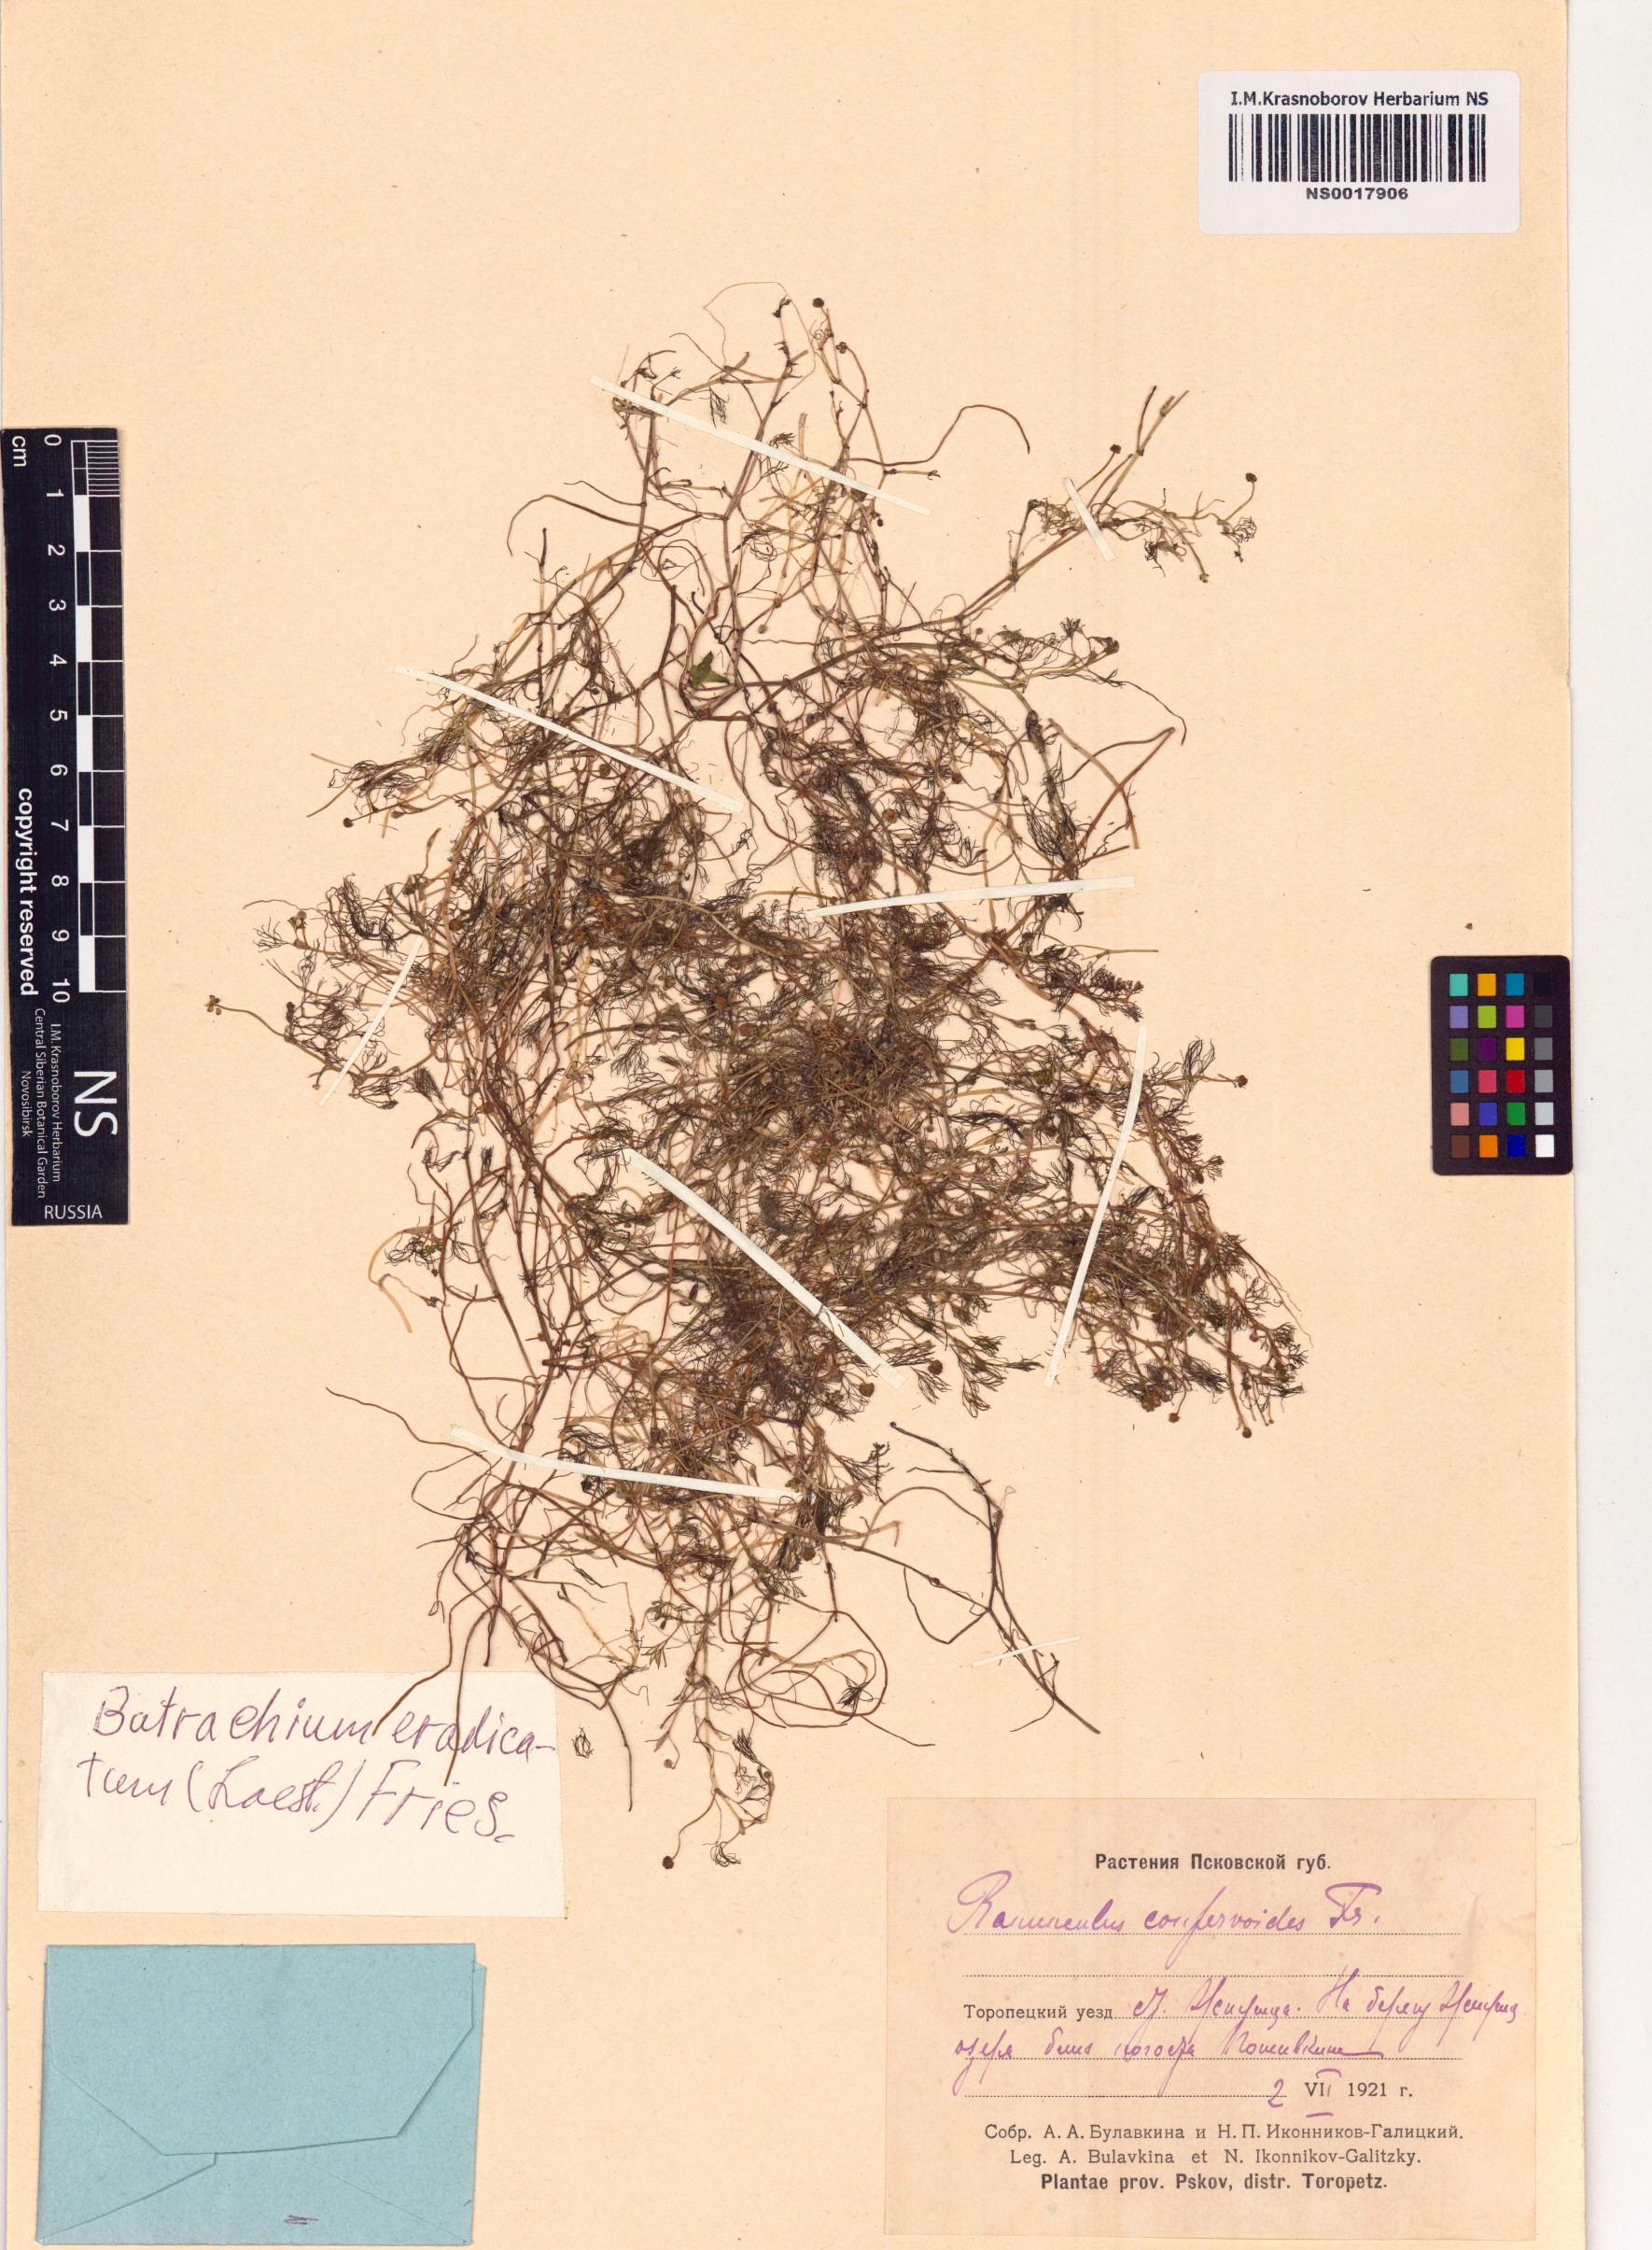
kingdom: Plantae
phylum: Tracheophyta
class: Magnoliopsida
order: Ranunculales
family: Ranunculaceae
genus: Ranunculus
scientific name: Ranunculus confervoides
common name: Delicate buttercup
